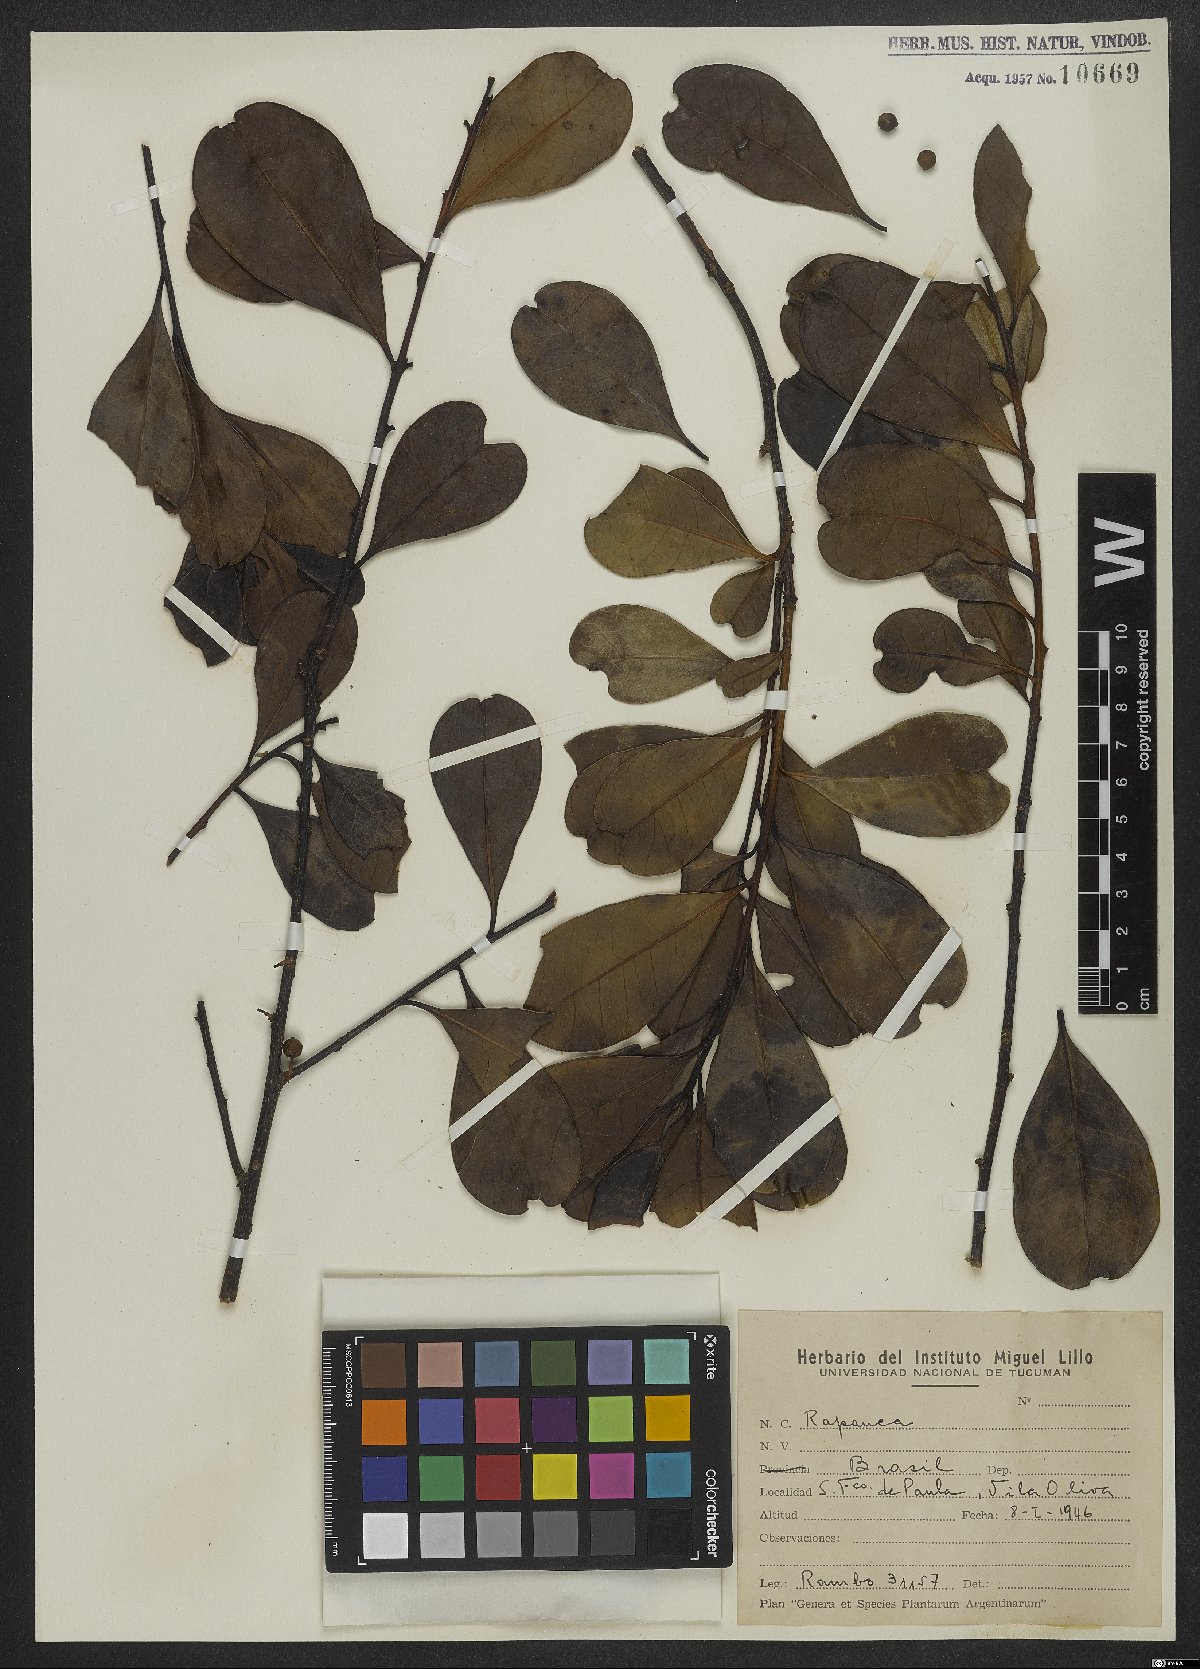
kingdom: Plantae
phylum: Tracheophyta
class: Magnoliopsida
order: Ericales
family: Primulaceae
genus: Myrsine
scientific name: Myrsine
